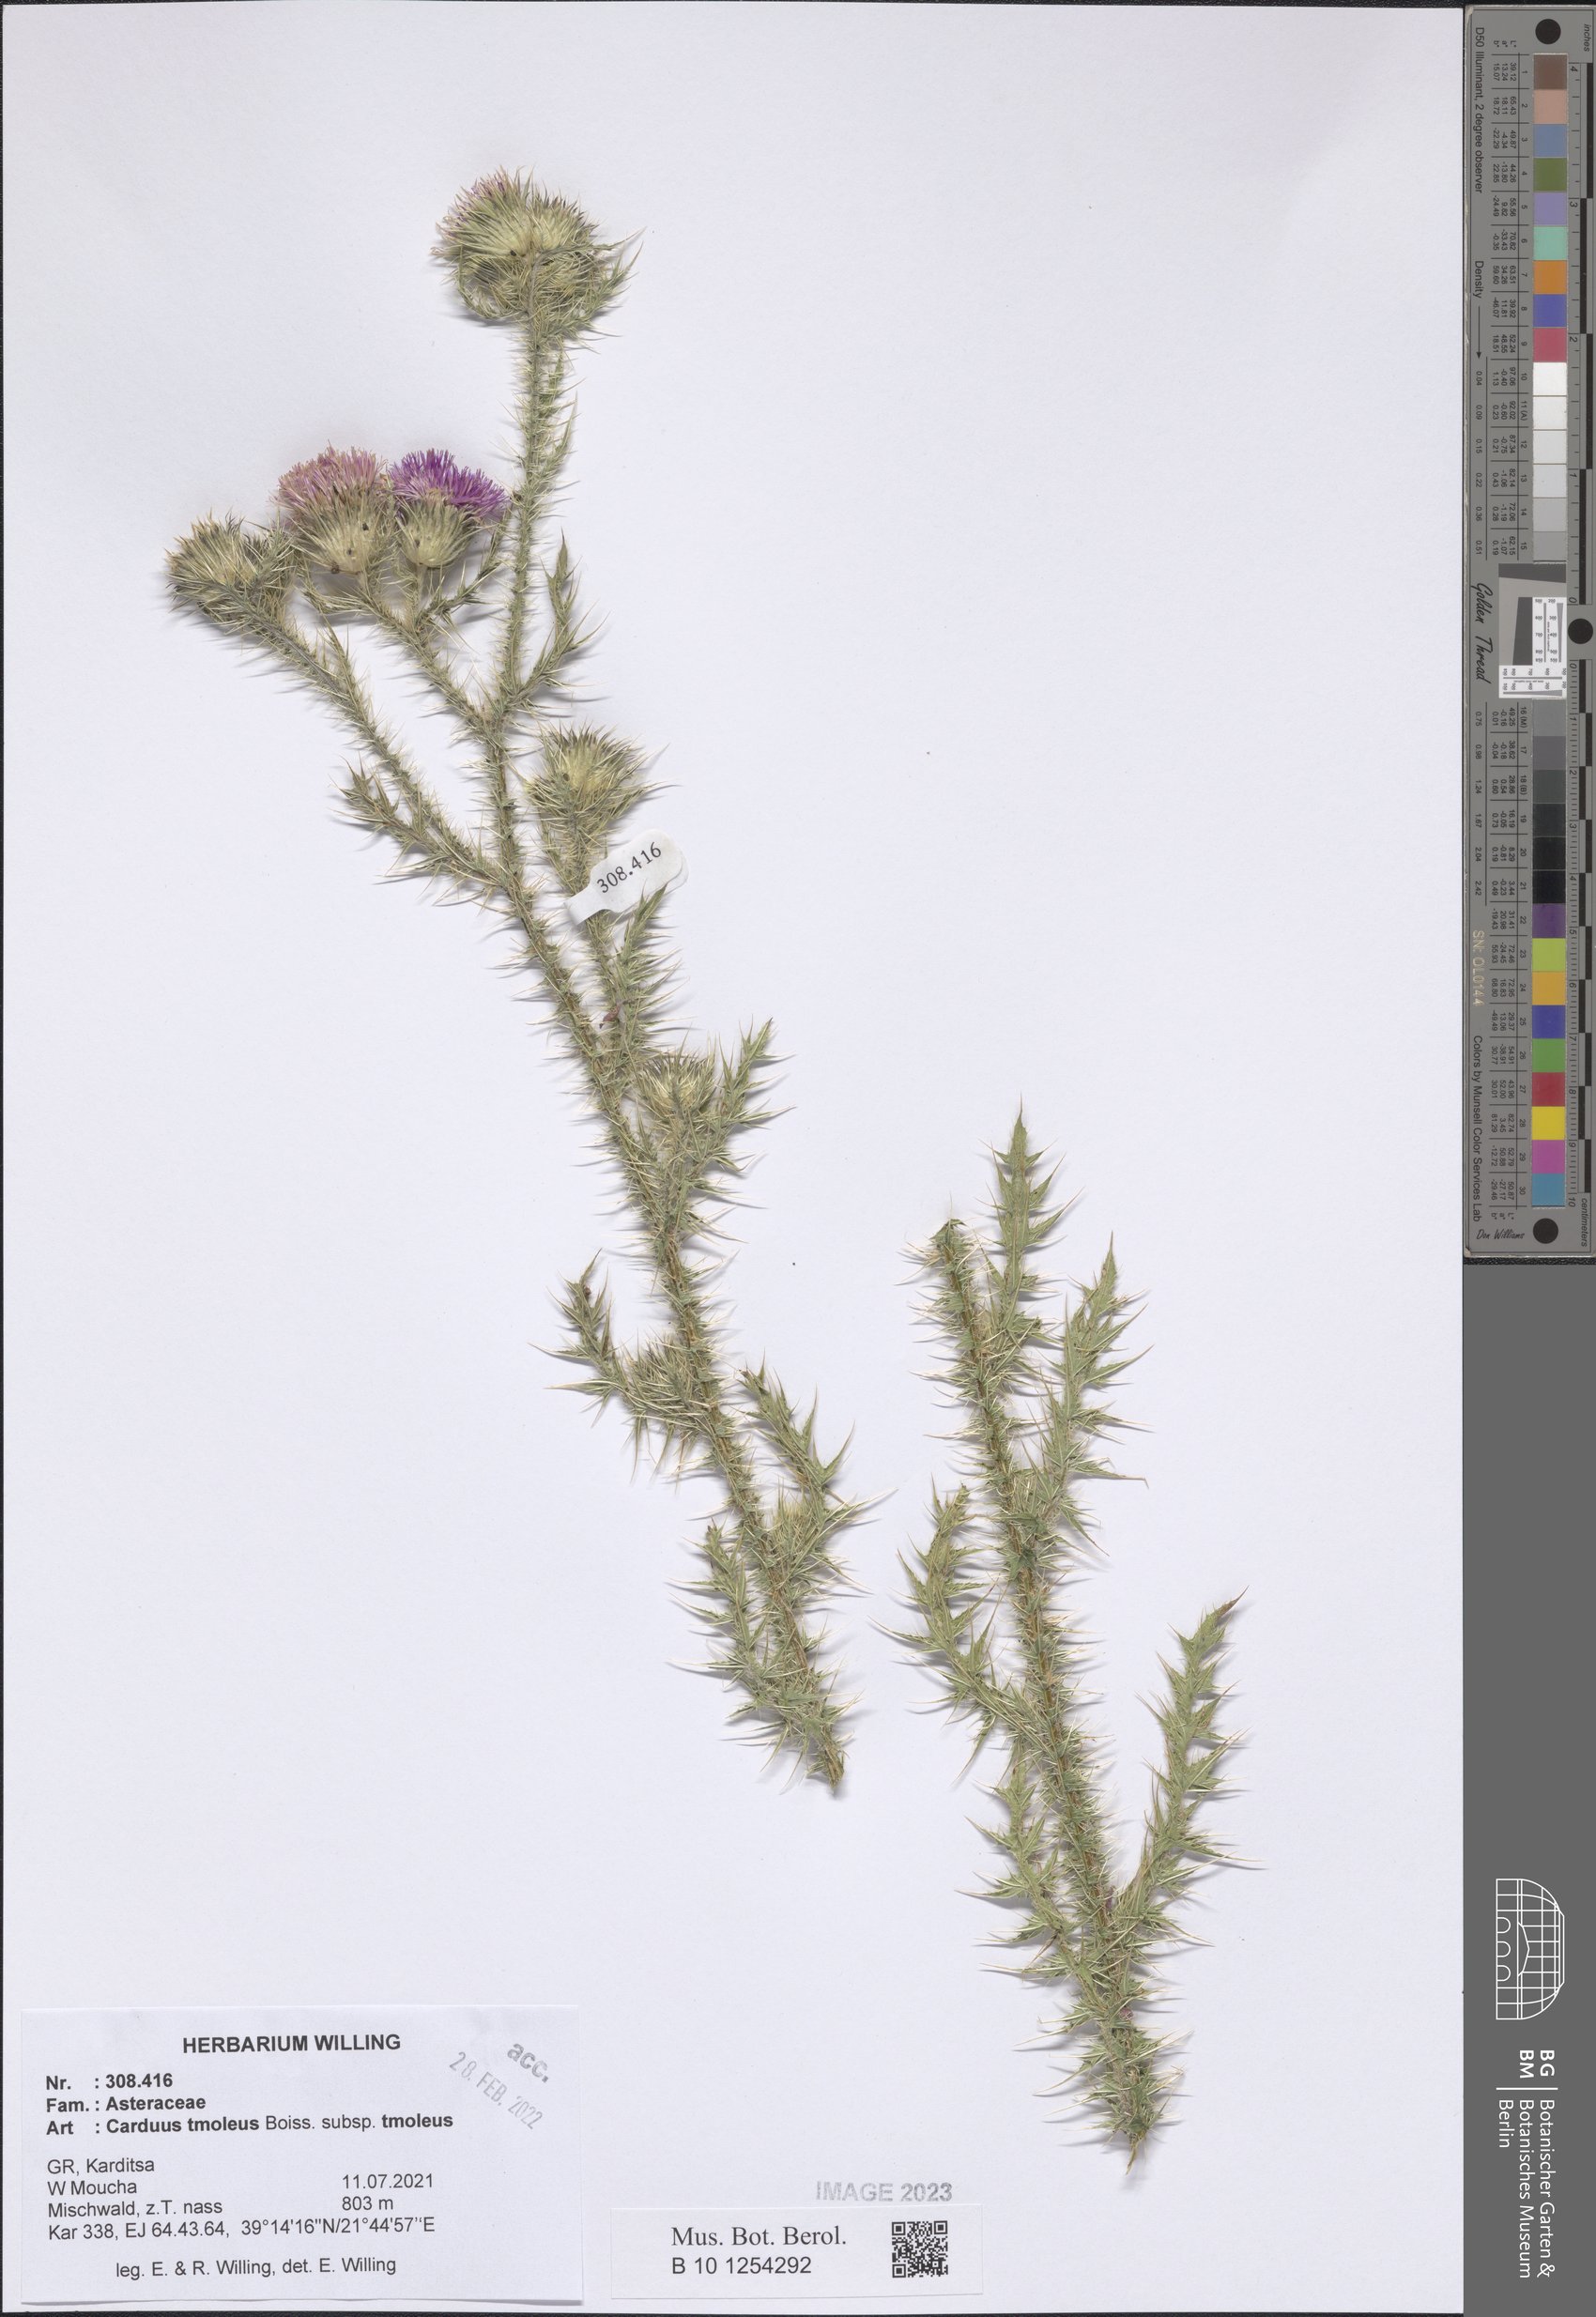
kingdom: Plantae
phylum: Tracheophyta
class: Magnoliopsida
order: Asterales
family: Asteraceae
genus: Carduus
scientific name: Carduus tmoleus
